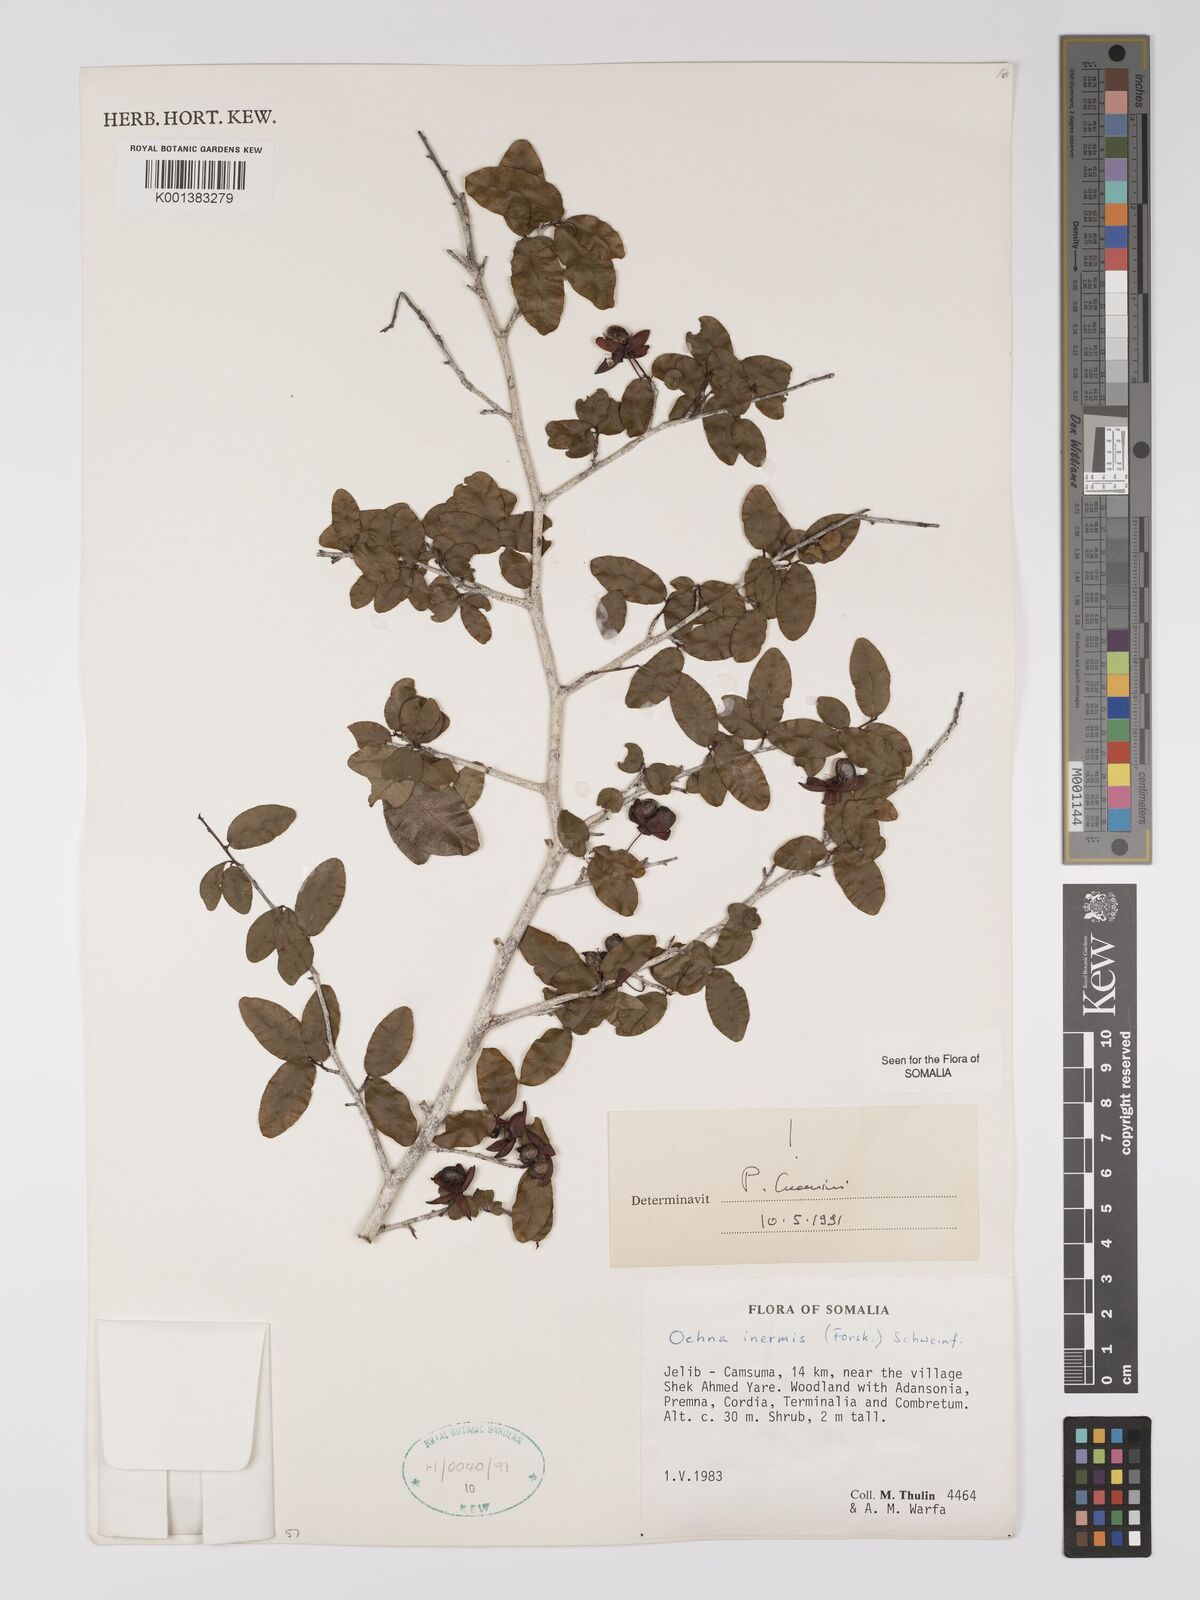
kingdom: Plantae
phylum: Tracheophyta
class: Magnoliopsida
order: Malpighiales
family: Ochnaceae
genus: Ochna
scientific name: Ochna inermis
